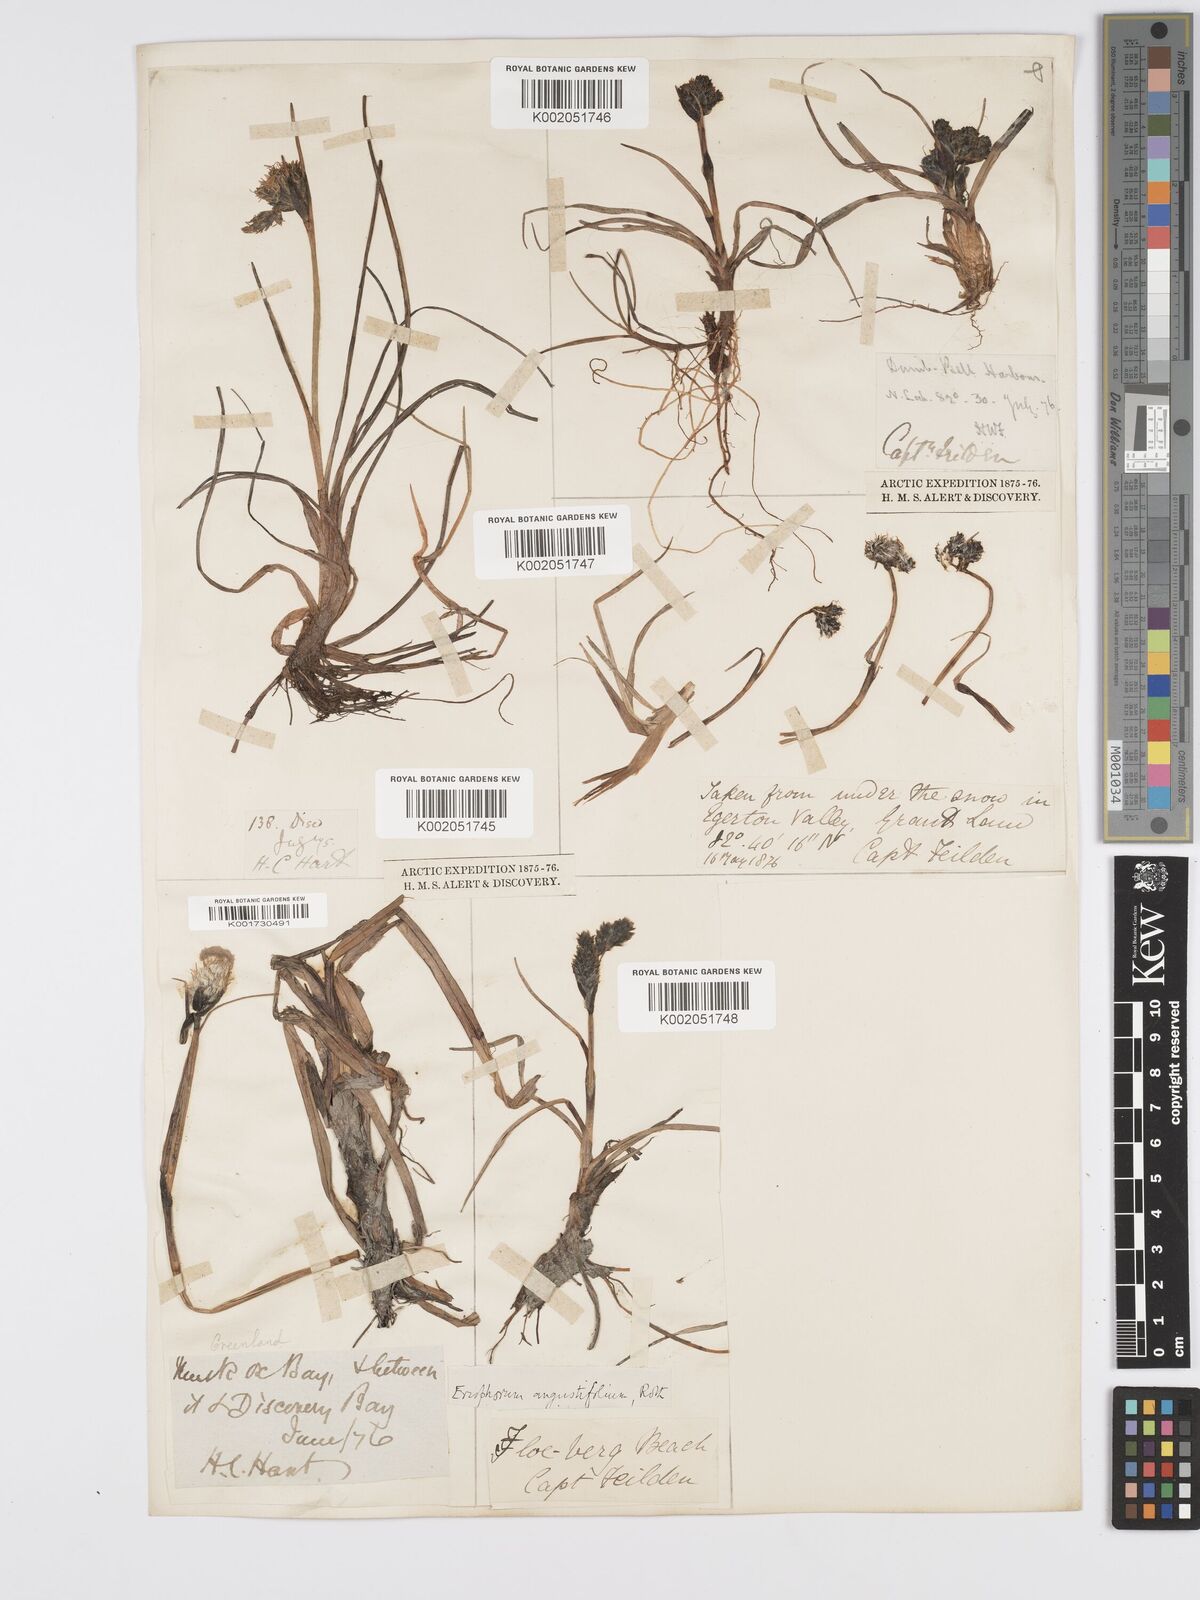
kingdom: Plantae
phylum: Tracheophyta
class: Liliopsida
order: Poales
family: Cyperaceae
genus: Eriophorum
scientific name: Eriophorum angustifolium
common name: Common cottongrass
